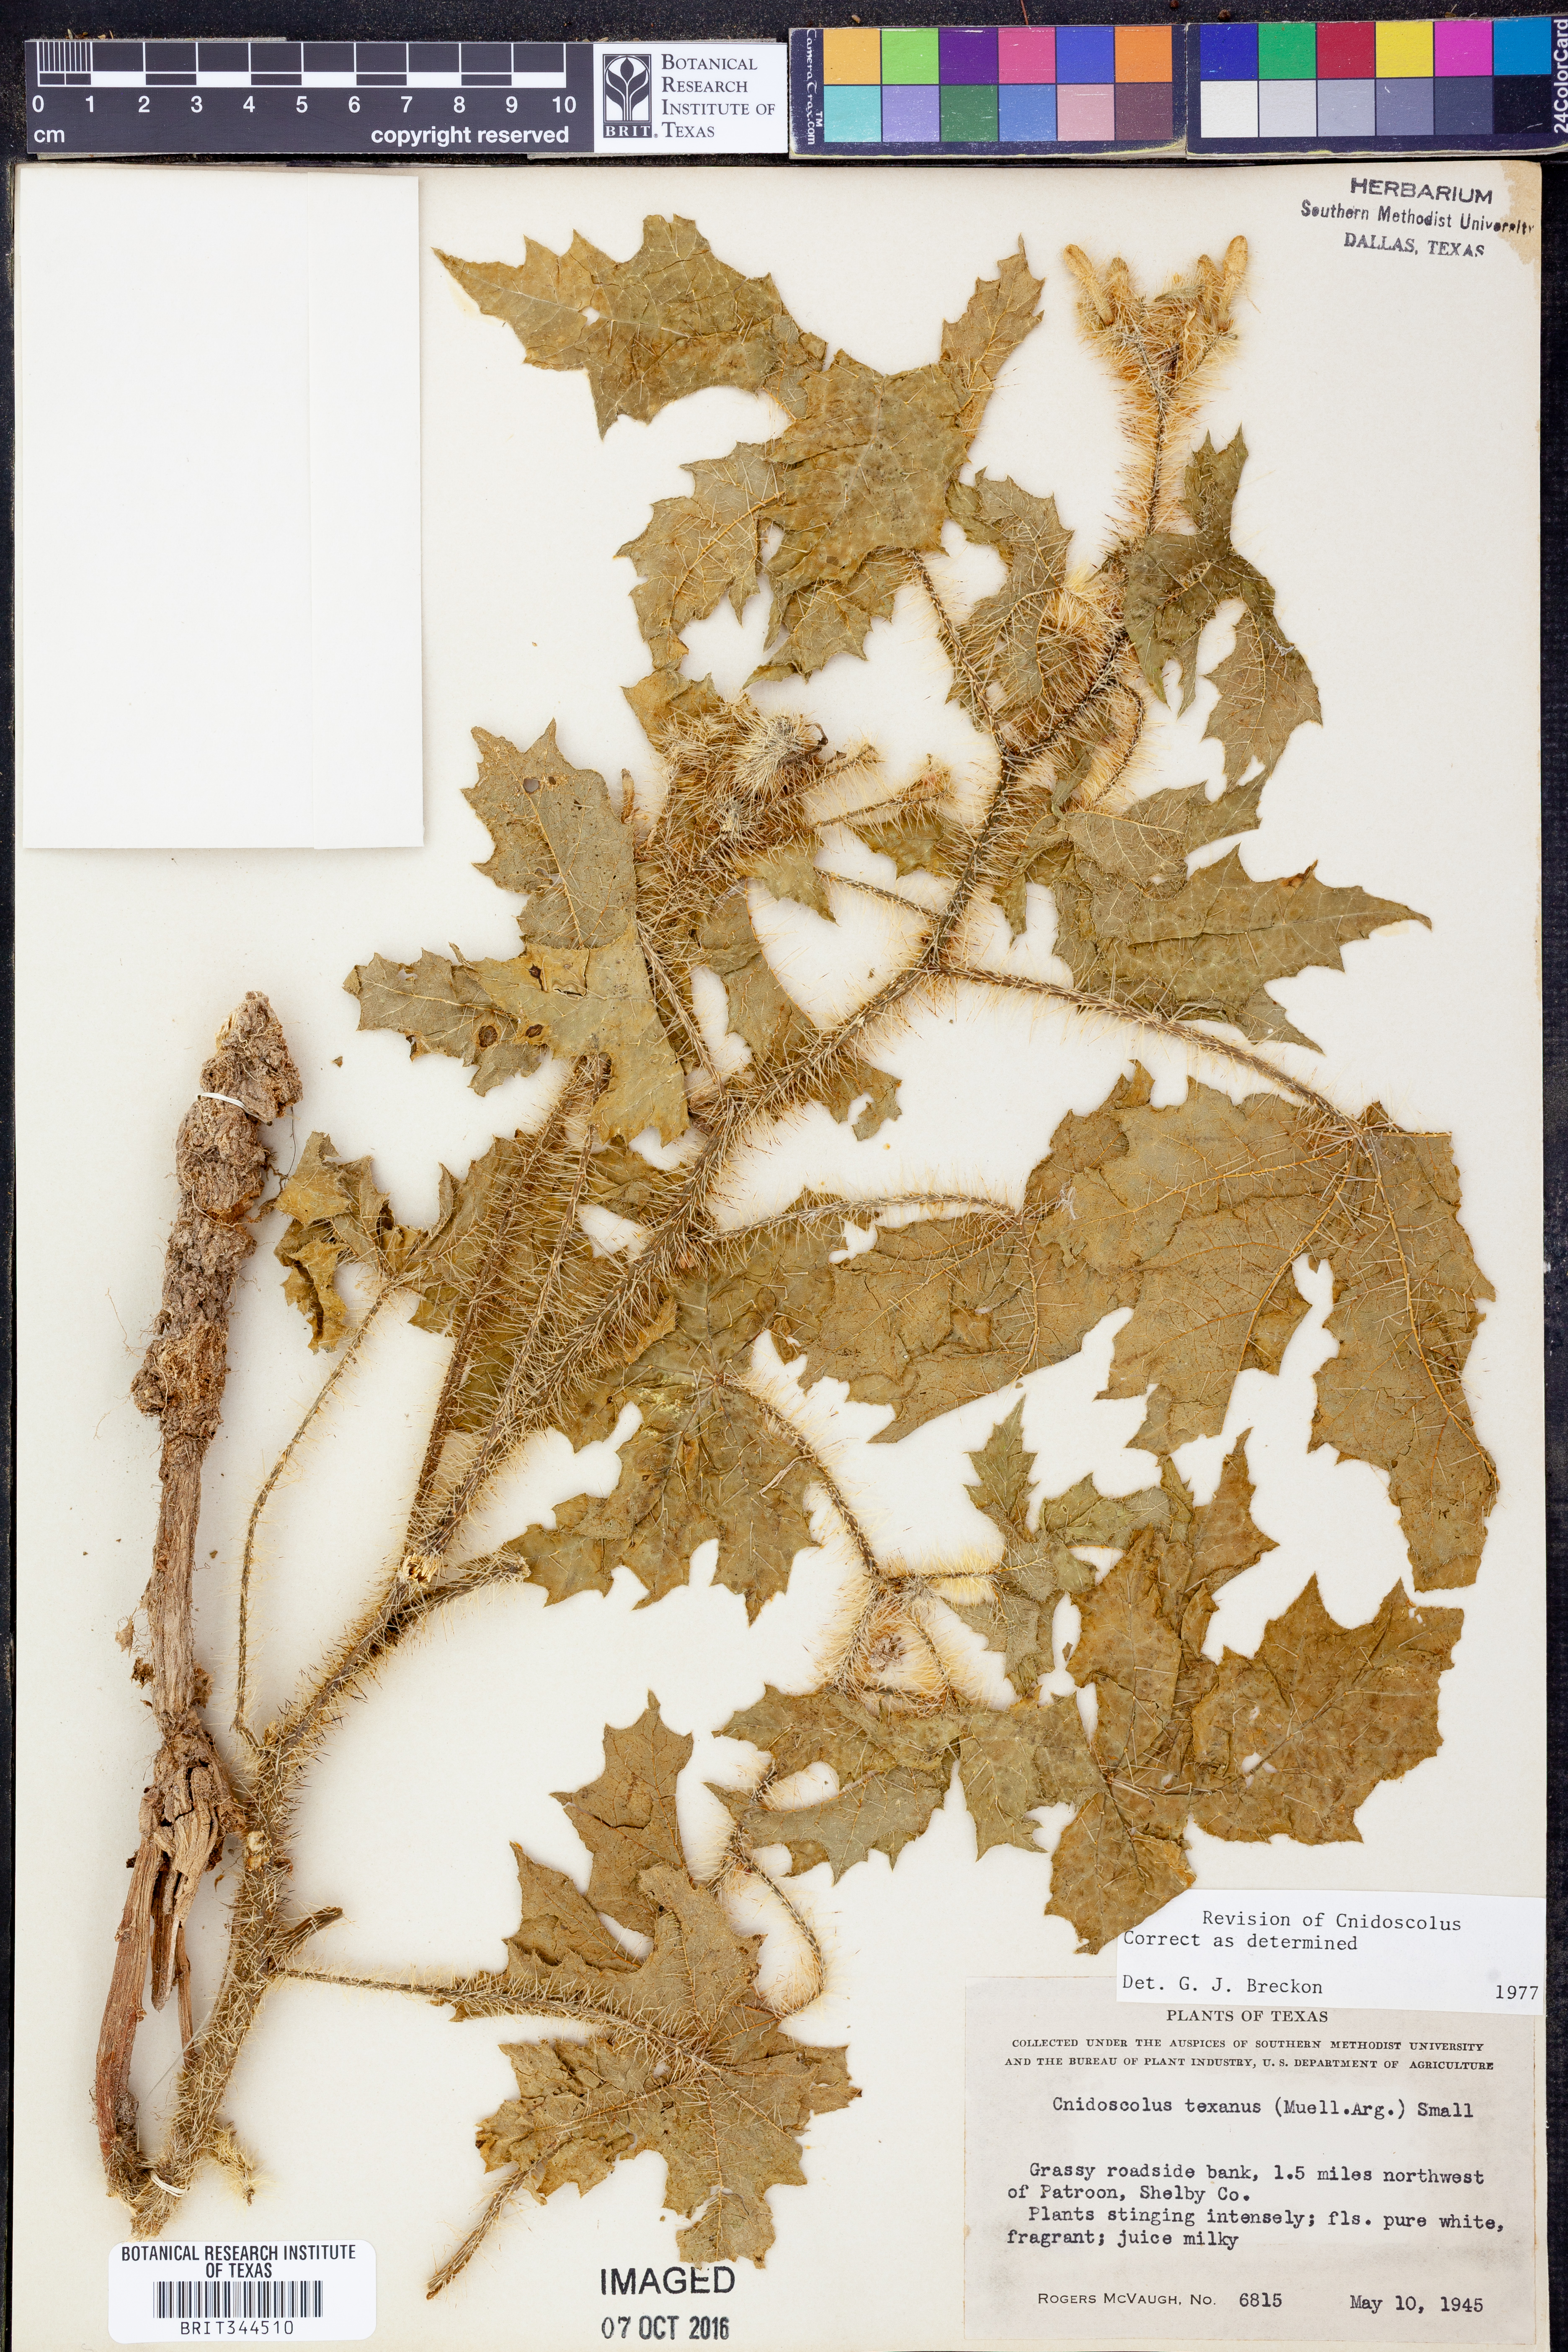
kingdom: Plantae
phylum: Tracheophyta
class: Magnoliopsida
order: Malpighiales
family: Euphorbiaceae
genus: Cnidoscolus
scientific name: Cnidoscolus texanus
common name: Texas bull-nettle
